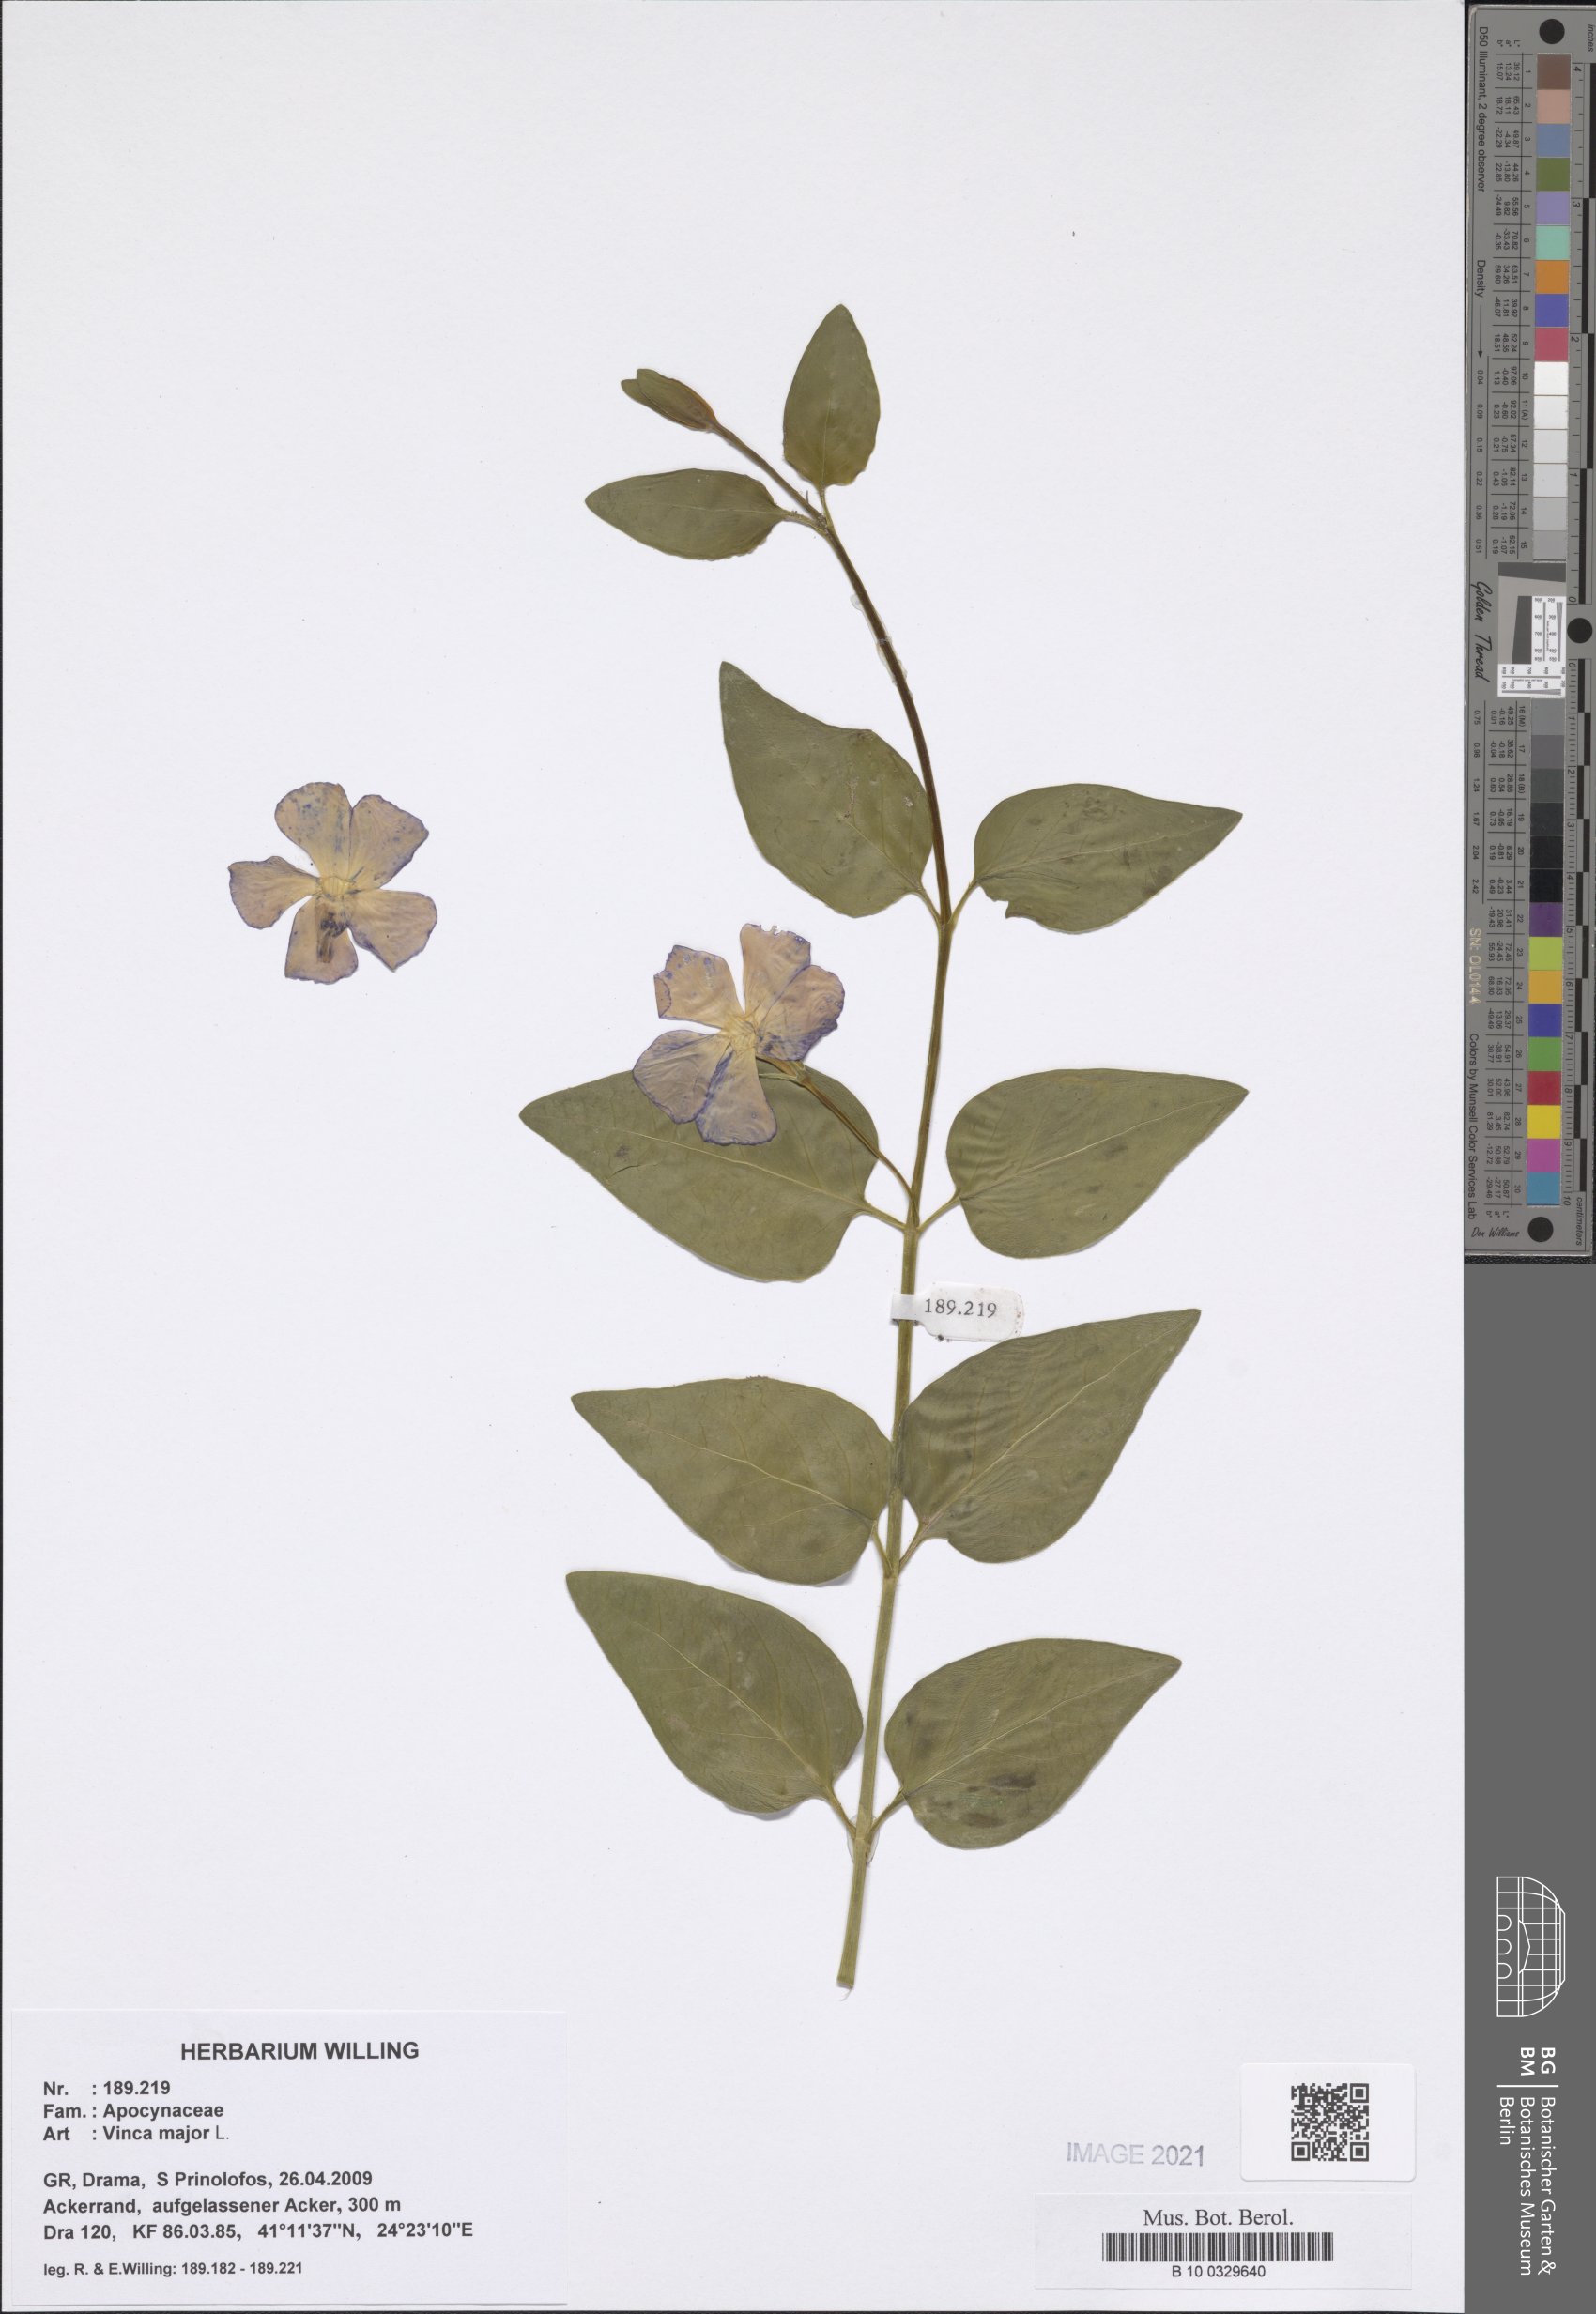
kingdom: Plantae
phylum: Tracheophyta
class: Magnoliopsida
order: Gentianales
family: Apocynaceae
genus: Vinca
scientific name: Vinca major
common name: Greater periwinkle
